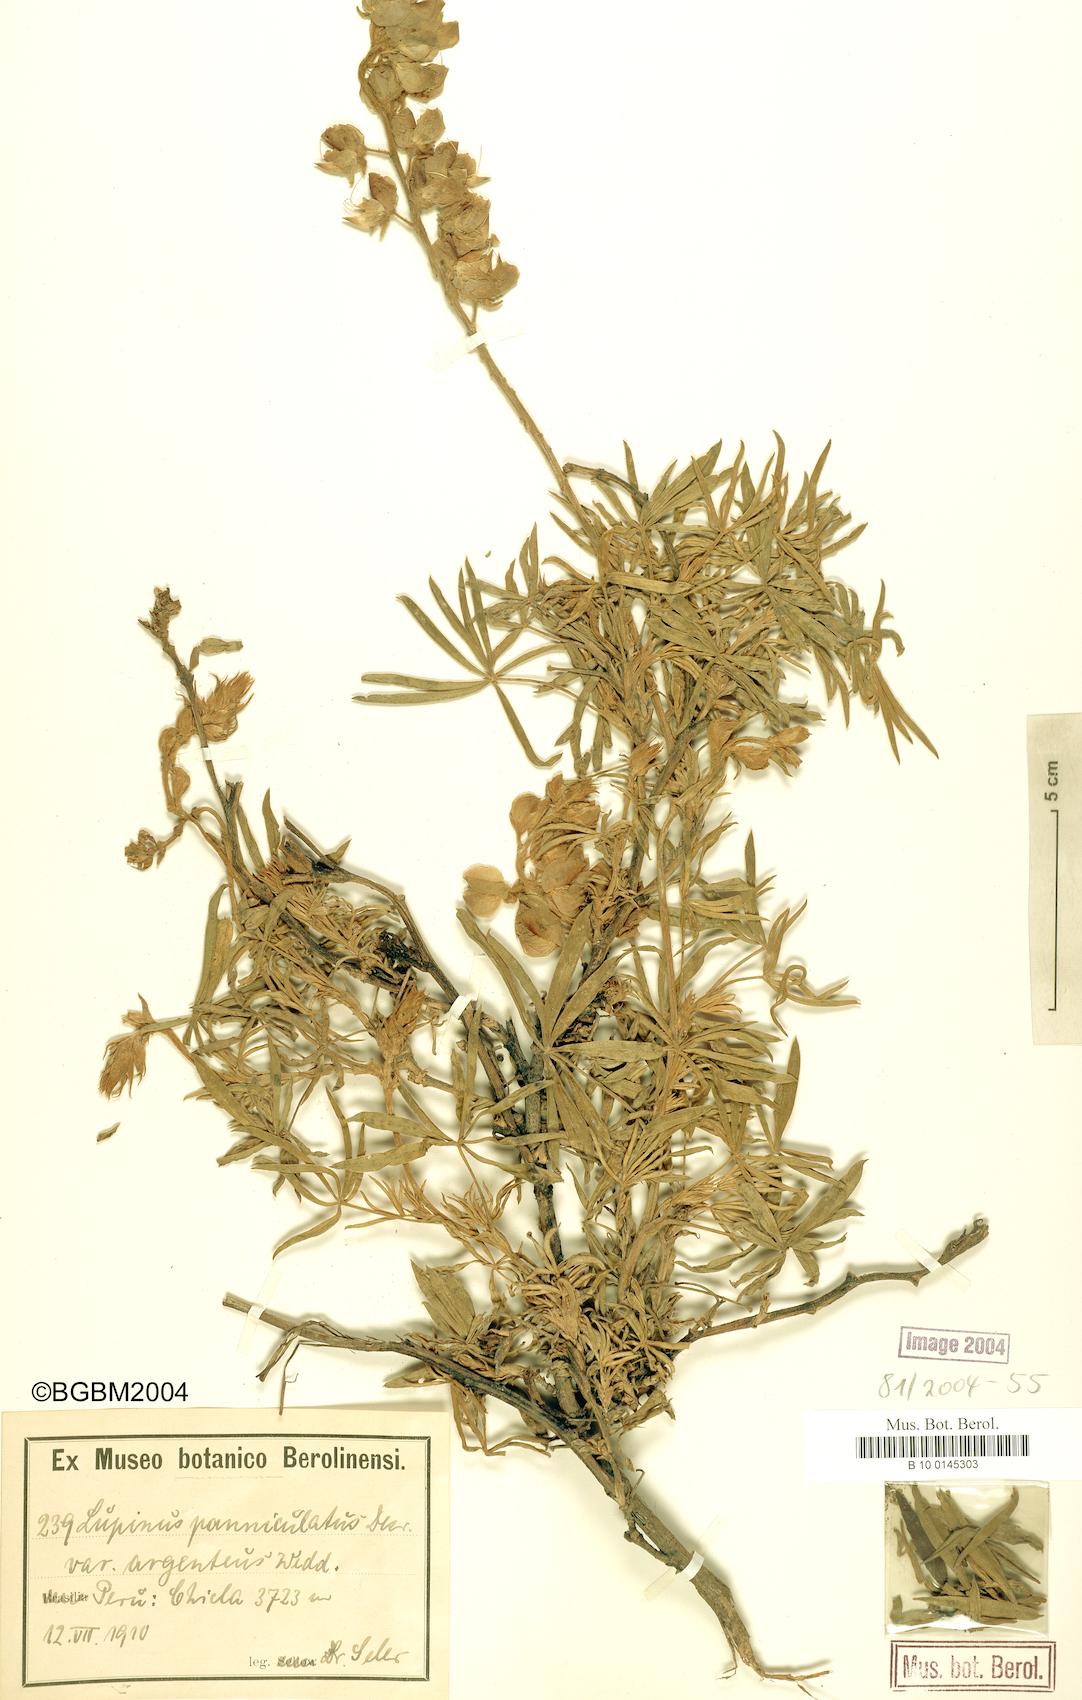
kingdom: Plantae
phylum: Tracheophyta
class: Magnoliopsida
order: Fabales
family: Fabaceae
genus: Lupinus
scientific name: Lupinus paniculatus
